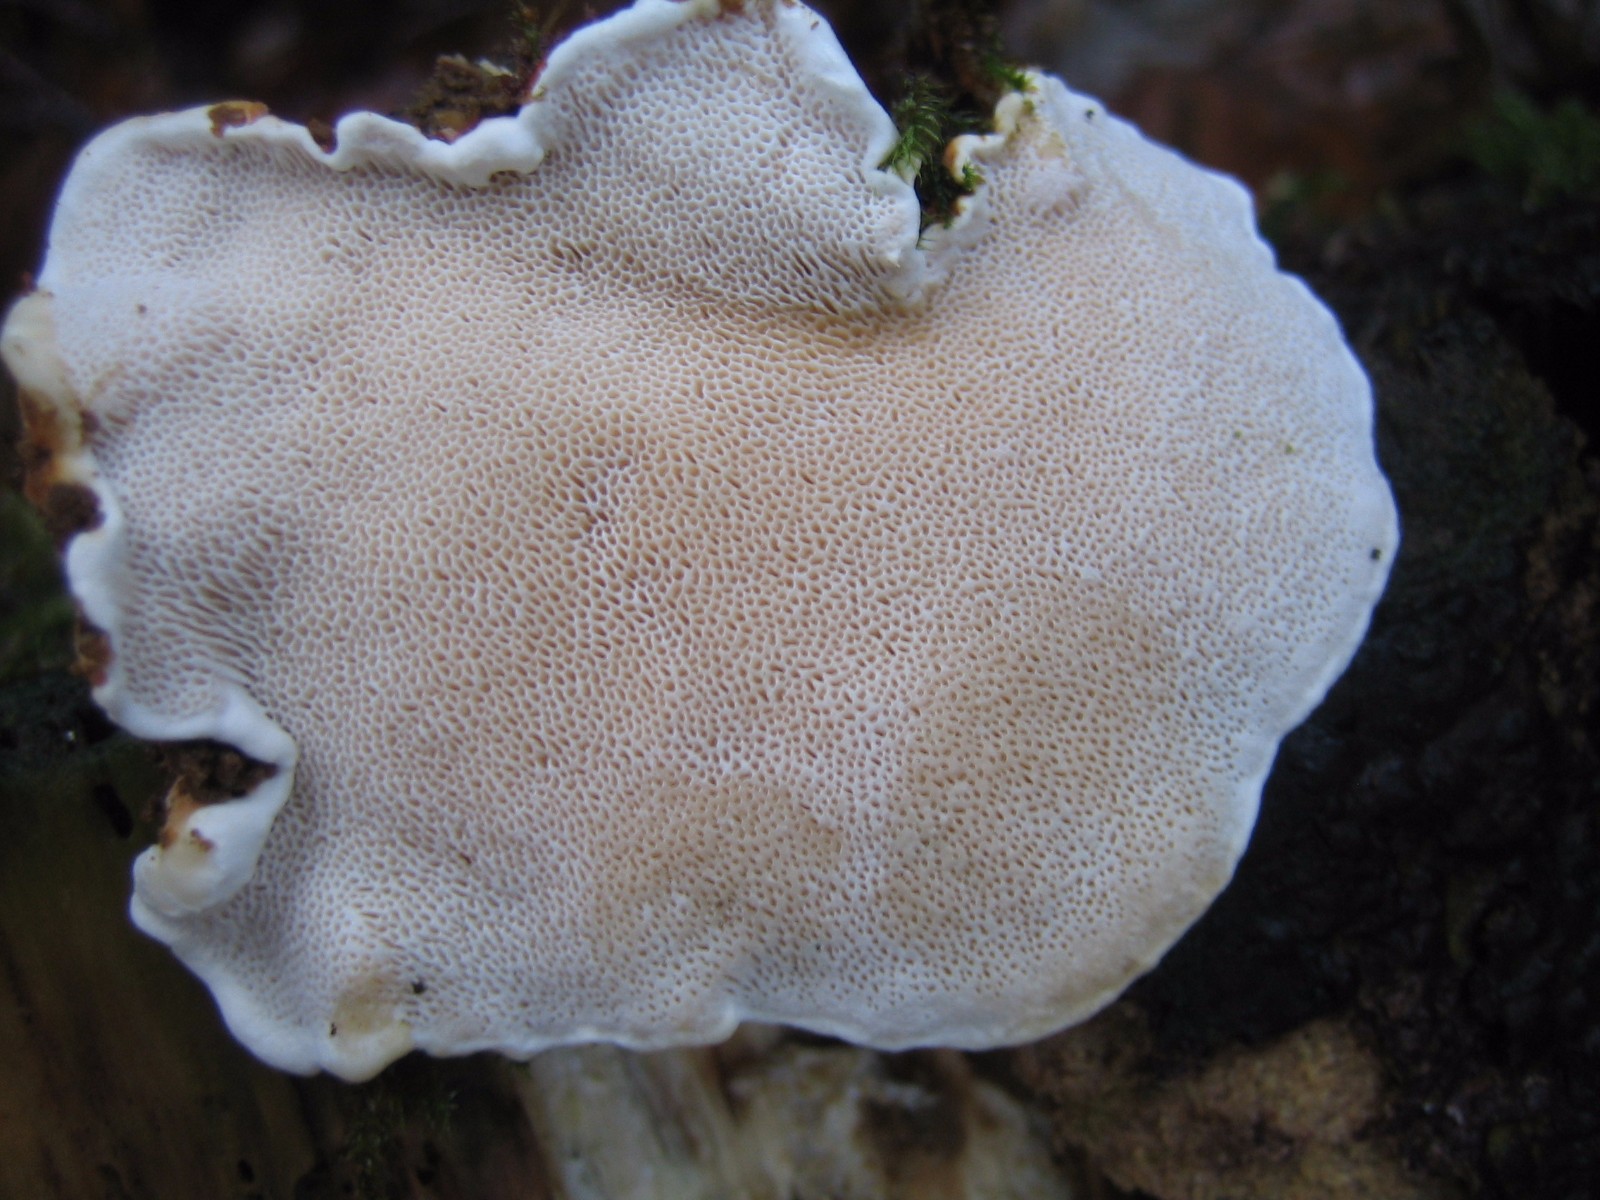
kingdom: Fungi
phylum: Basidiomycota
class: Agaricomycetes
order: Polyporales
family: Fomitopsidaceae
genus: Fomitopsis
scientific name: Fomitopsis pinicola
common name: randbæltet hovporesvamp
